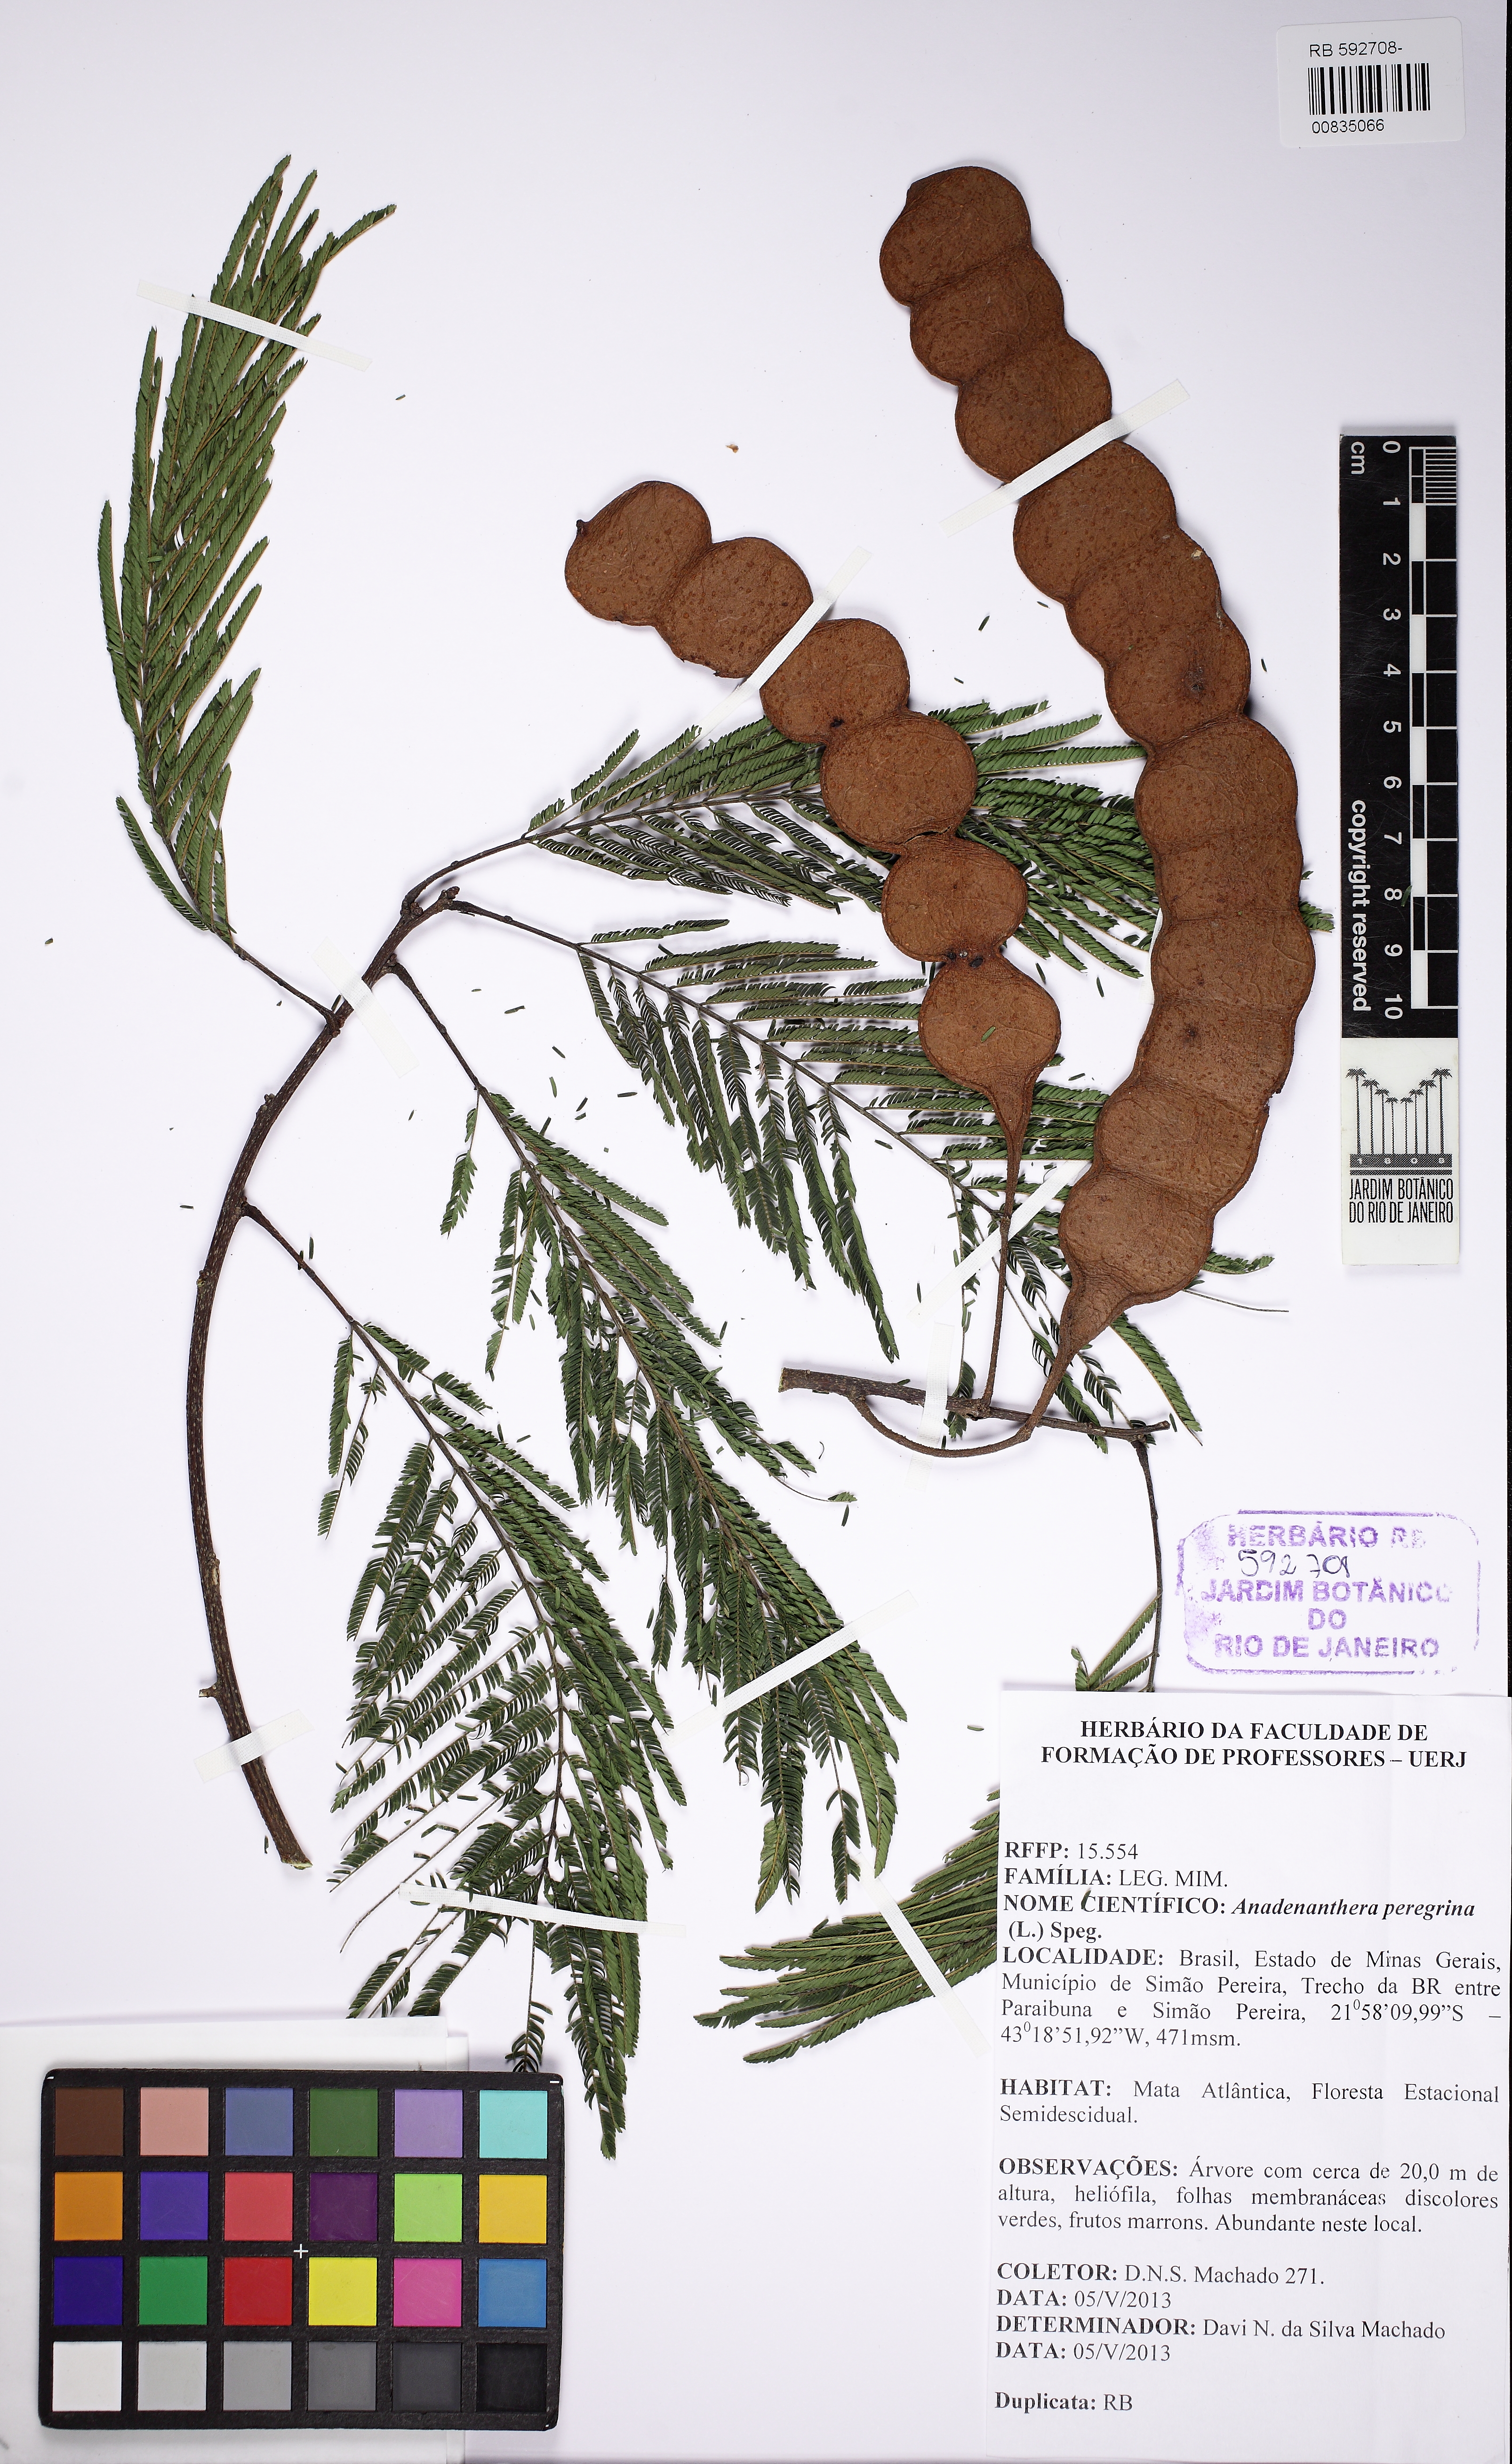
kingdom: Plantae
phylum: Tracheophyta
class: Magnoliopsida
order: Fabales
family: Fabaceae
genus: Anadenanthera
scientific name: Anadenanthera peregrina
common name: Cohoba
